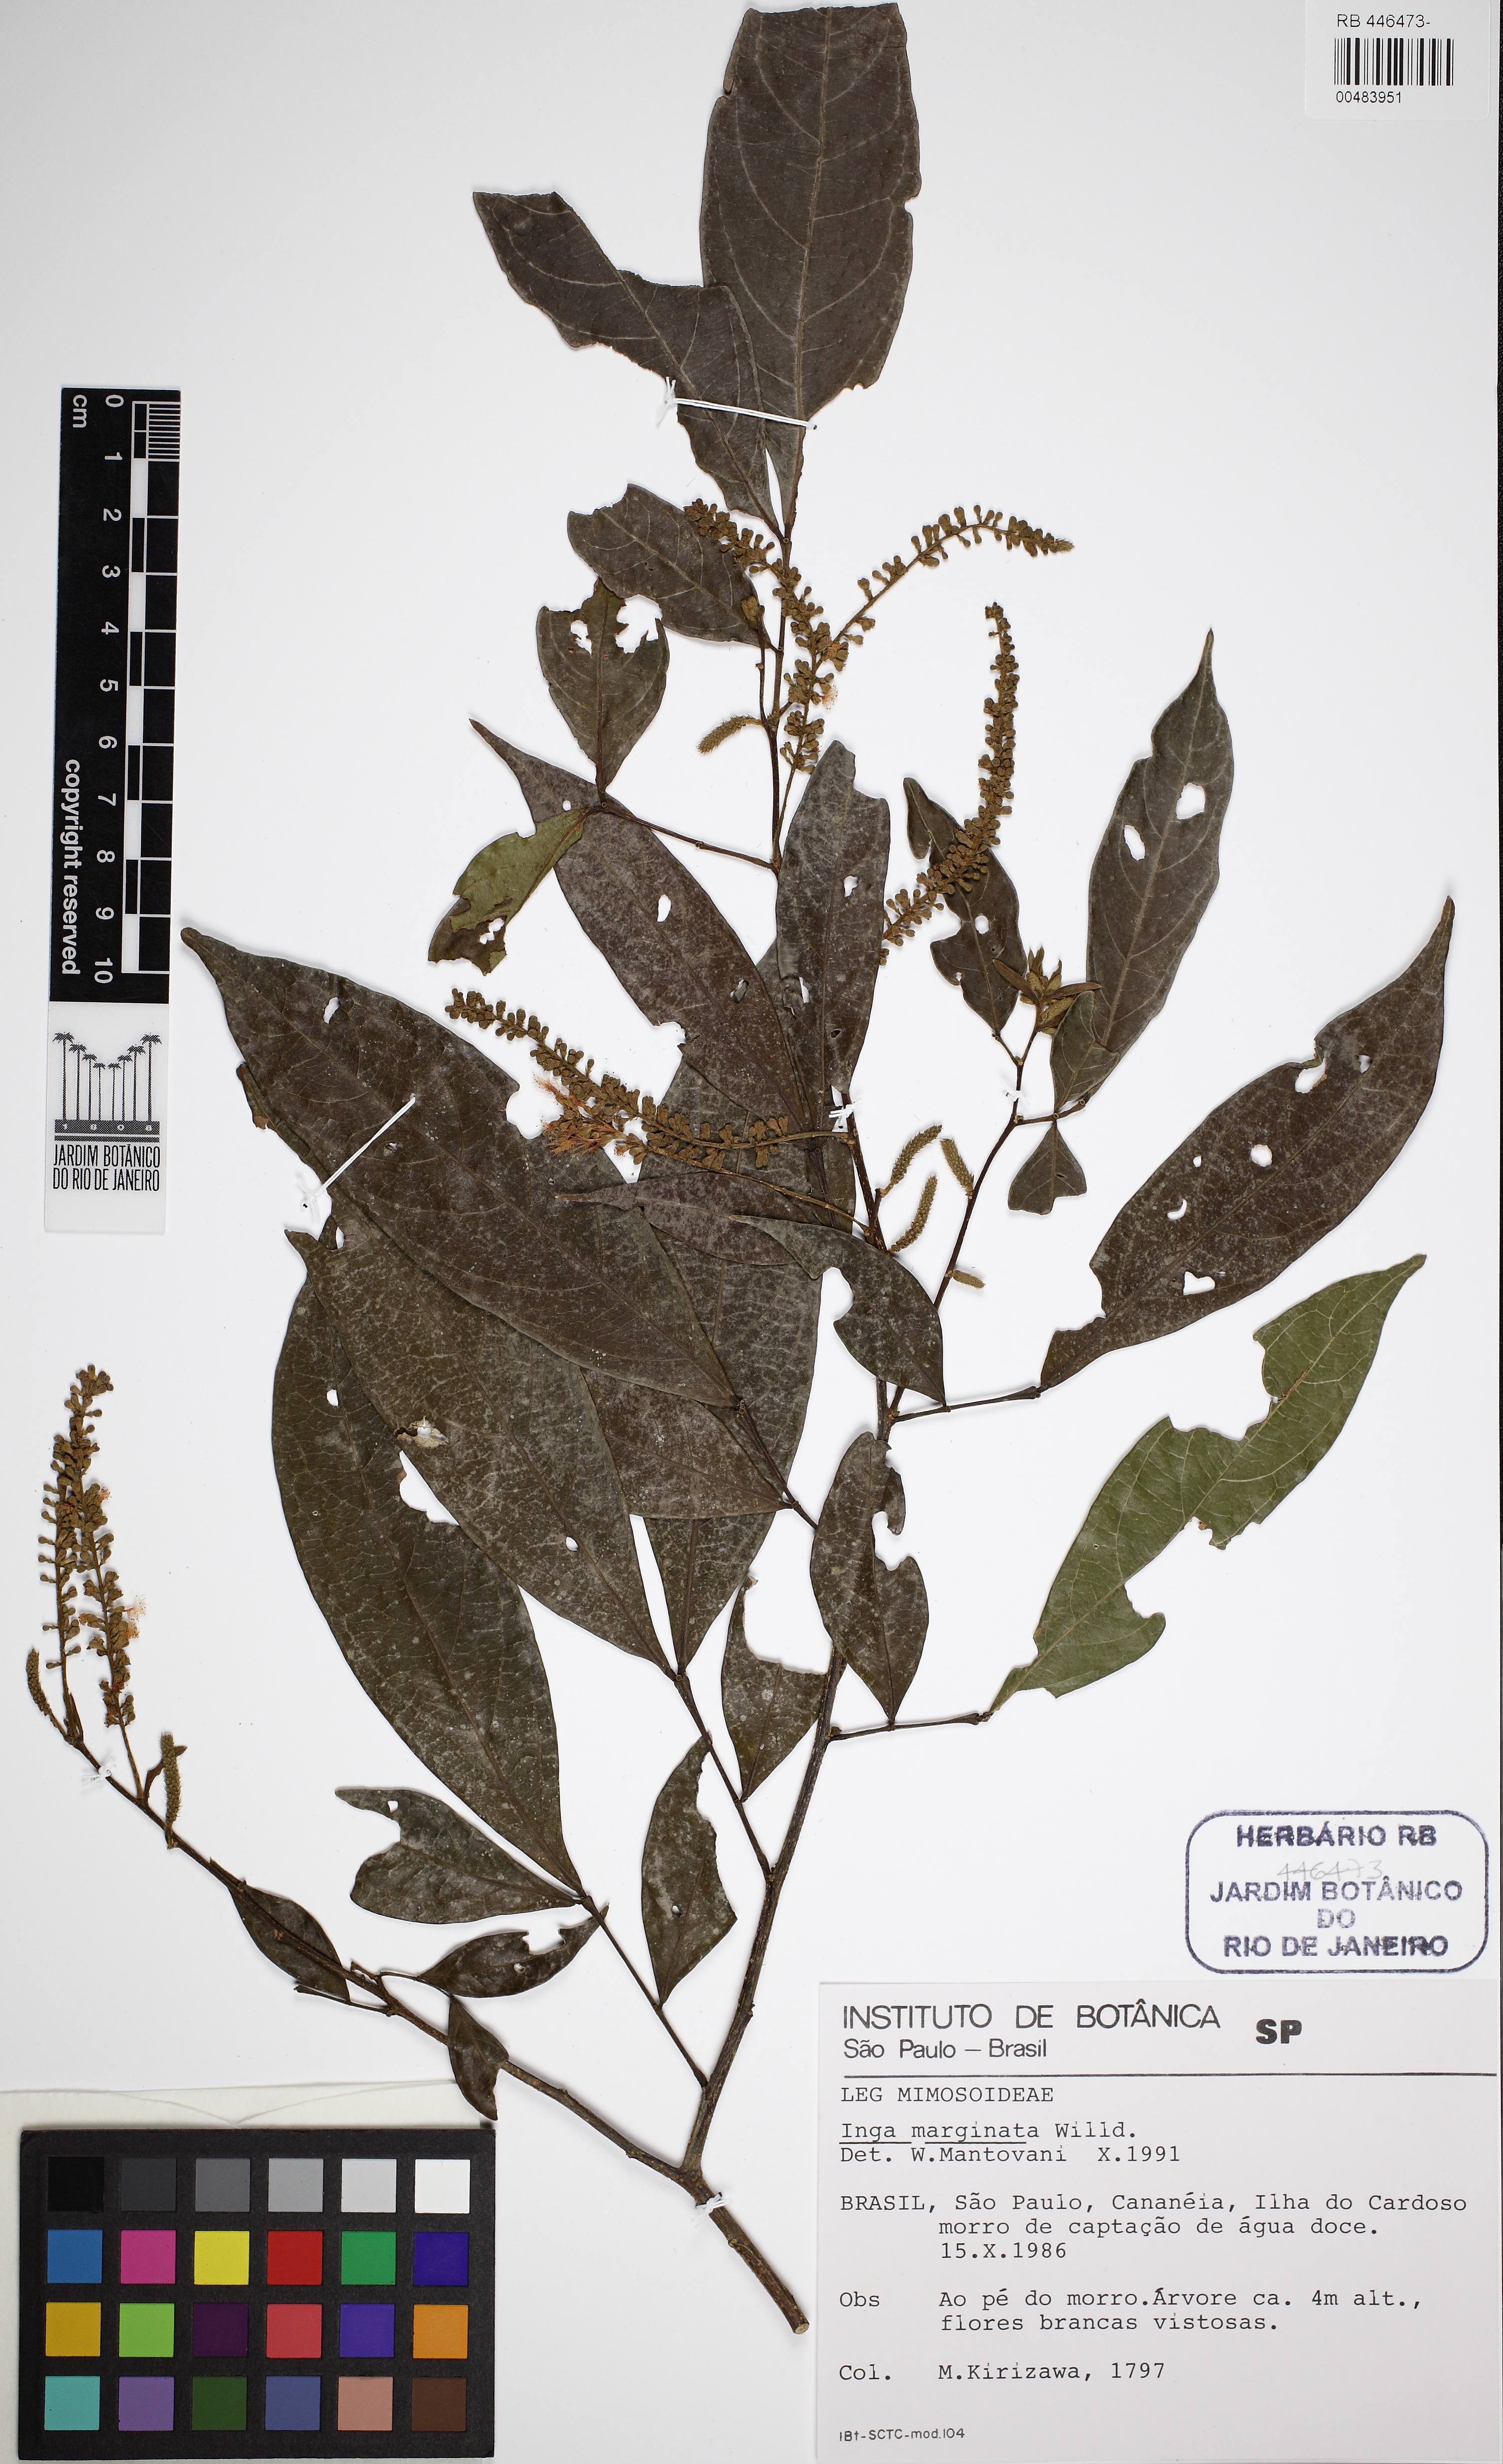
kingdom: Plantae
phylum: Tracheophyta
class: Magnoliopsida
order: Fabales
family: Fabaceae
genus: Inga
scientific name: Inga marginata
